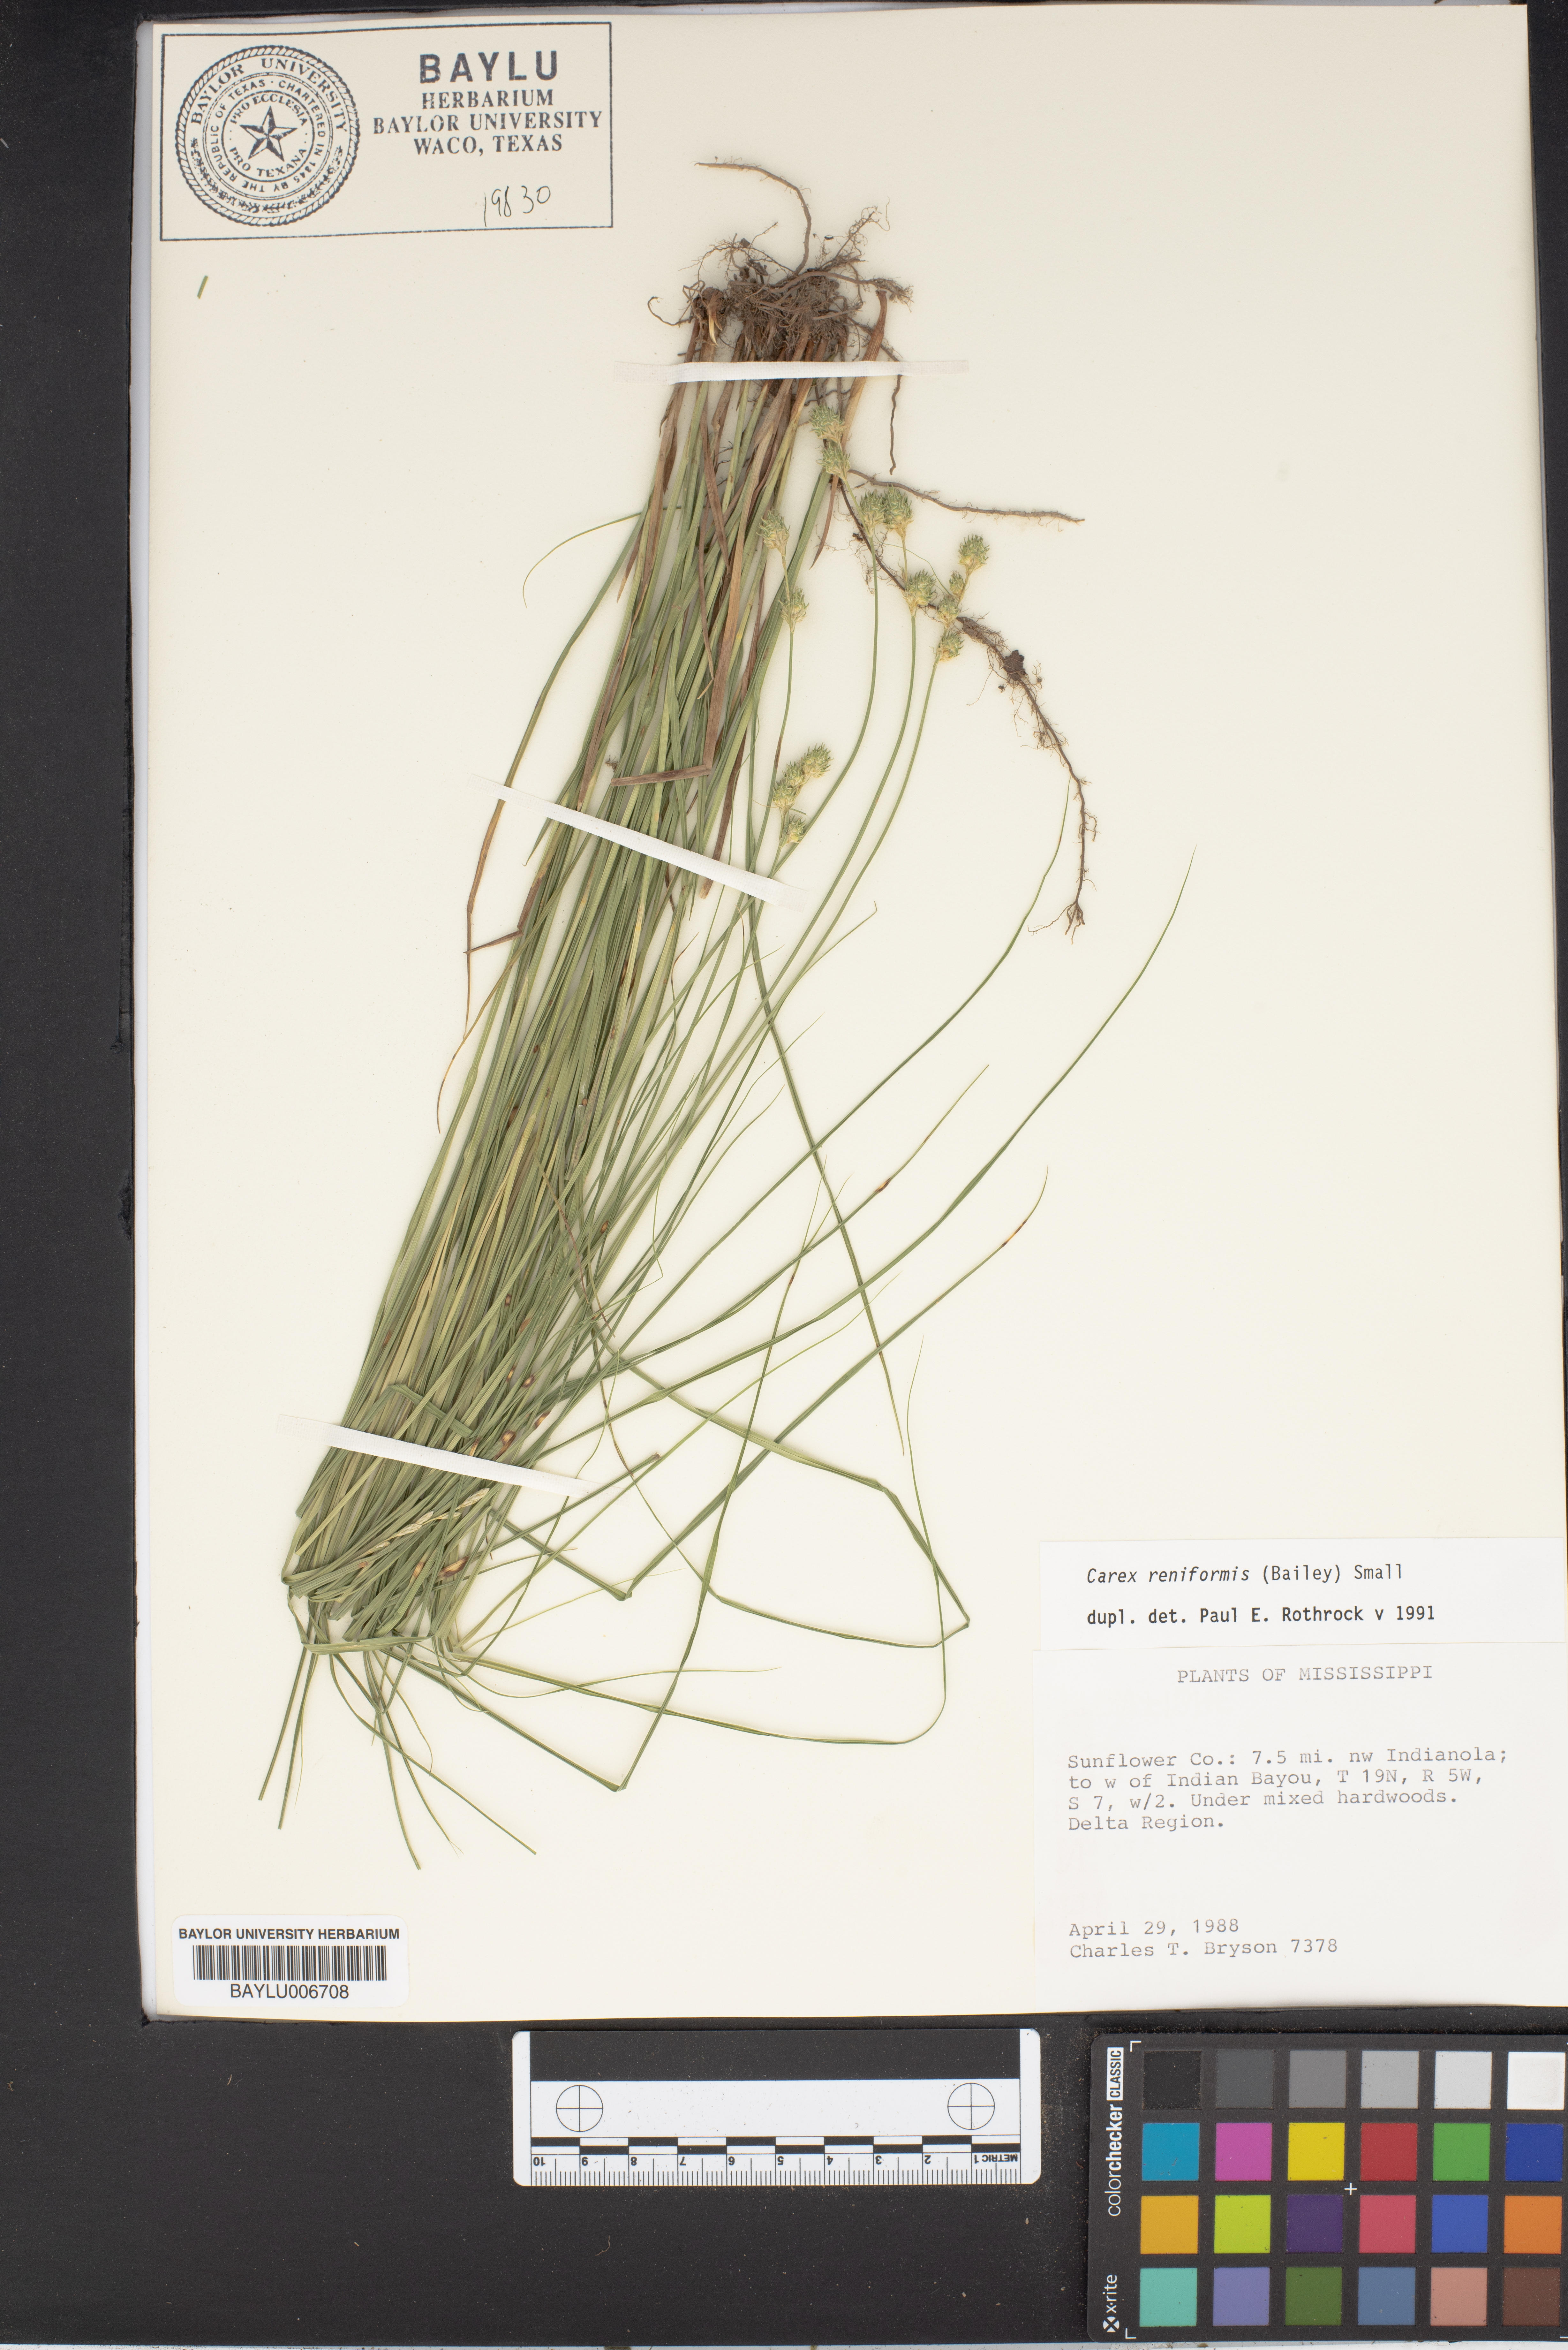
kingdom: Plantae
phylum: Tracheophyta
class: Liliopsida
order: Poales
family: Cyperaceae
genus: Carex
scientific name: Carex reniformis
